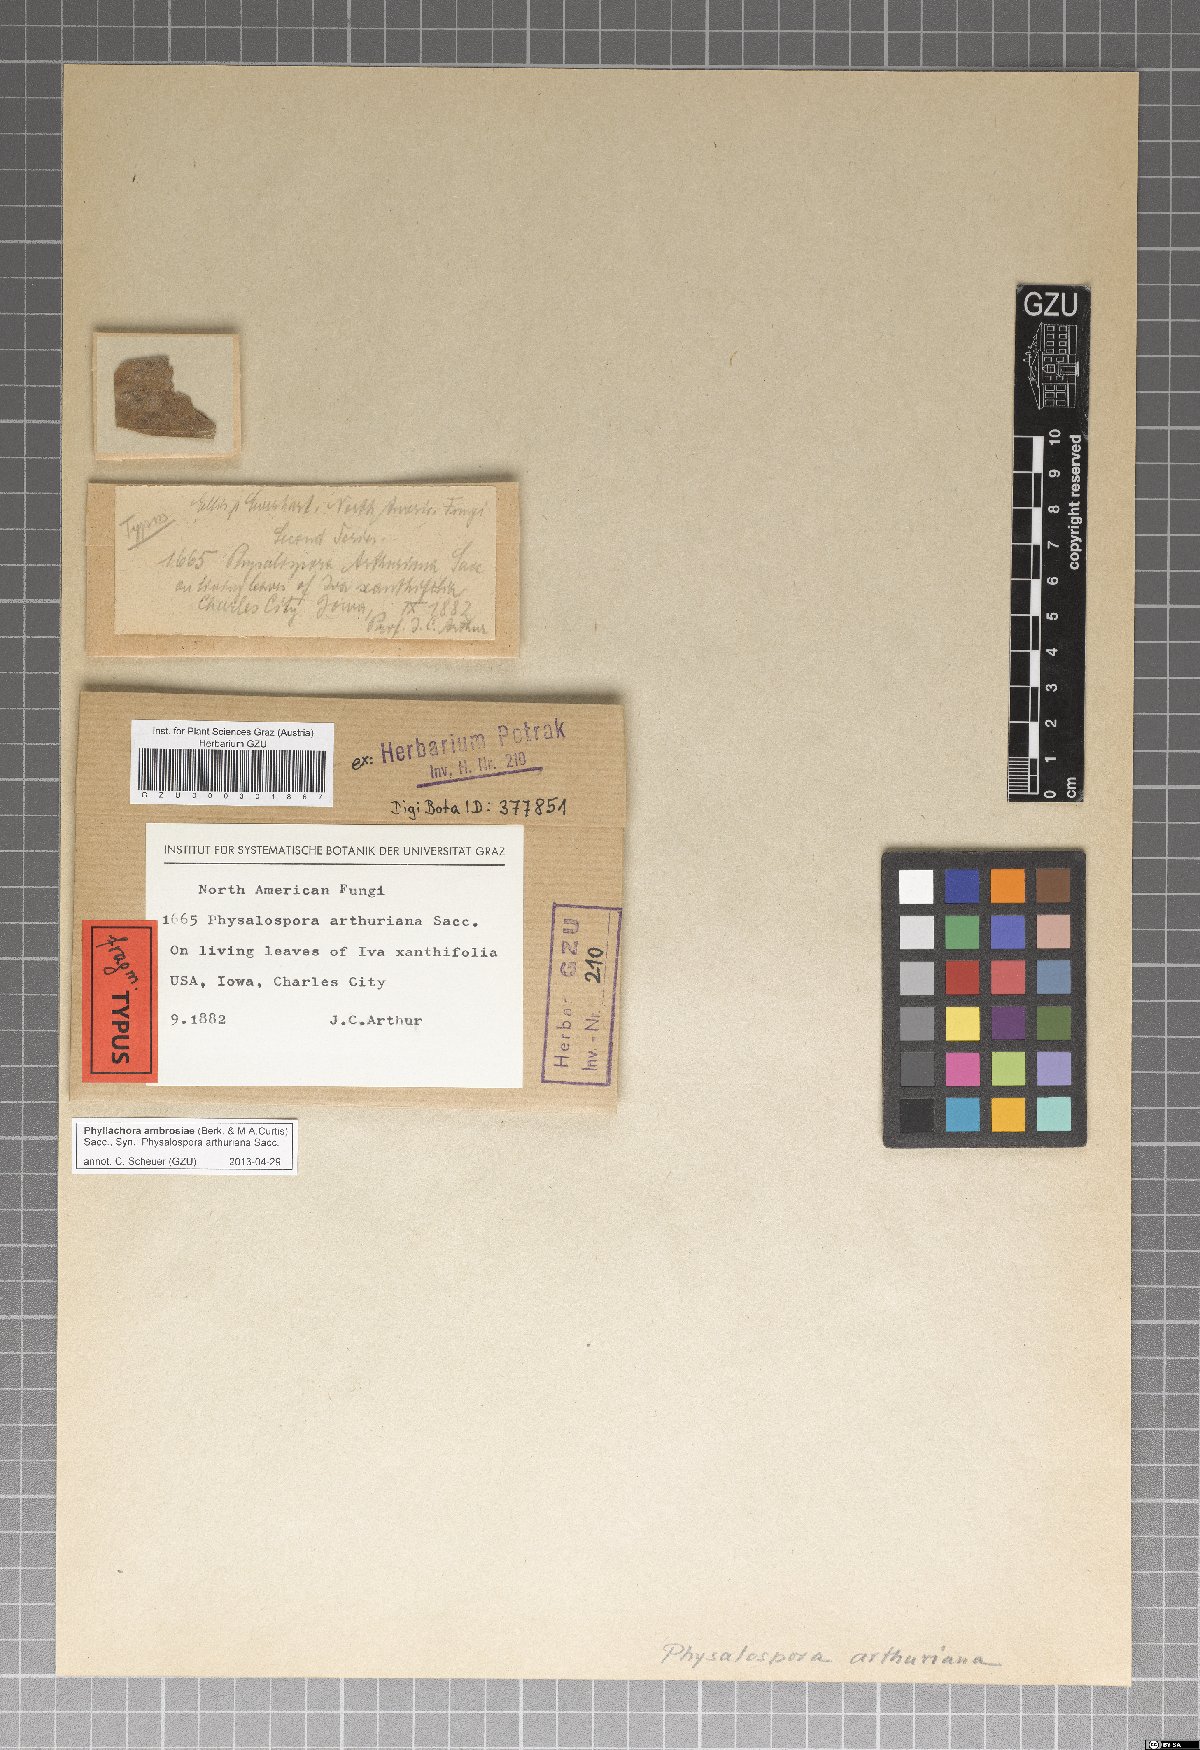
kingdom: Fungi
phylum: Ascomycota
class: Sordariomycetes
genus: Cryptophyllachora
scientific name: Cryptophyllachora ambrosiae
